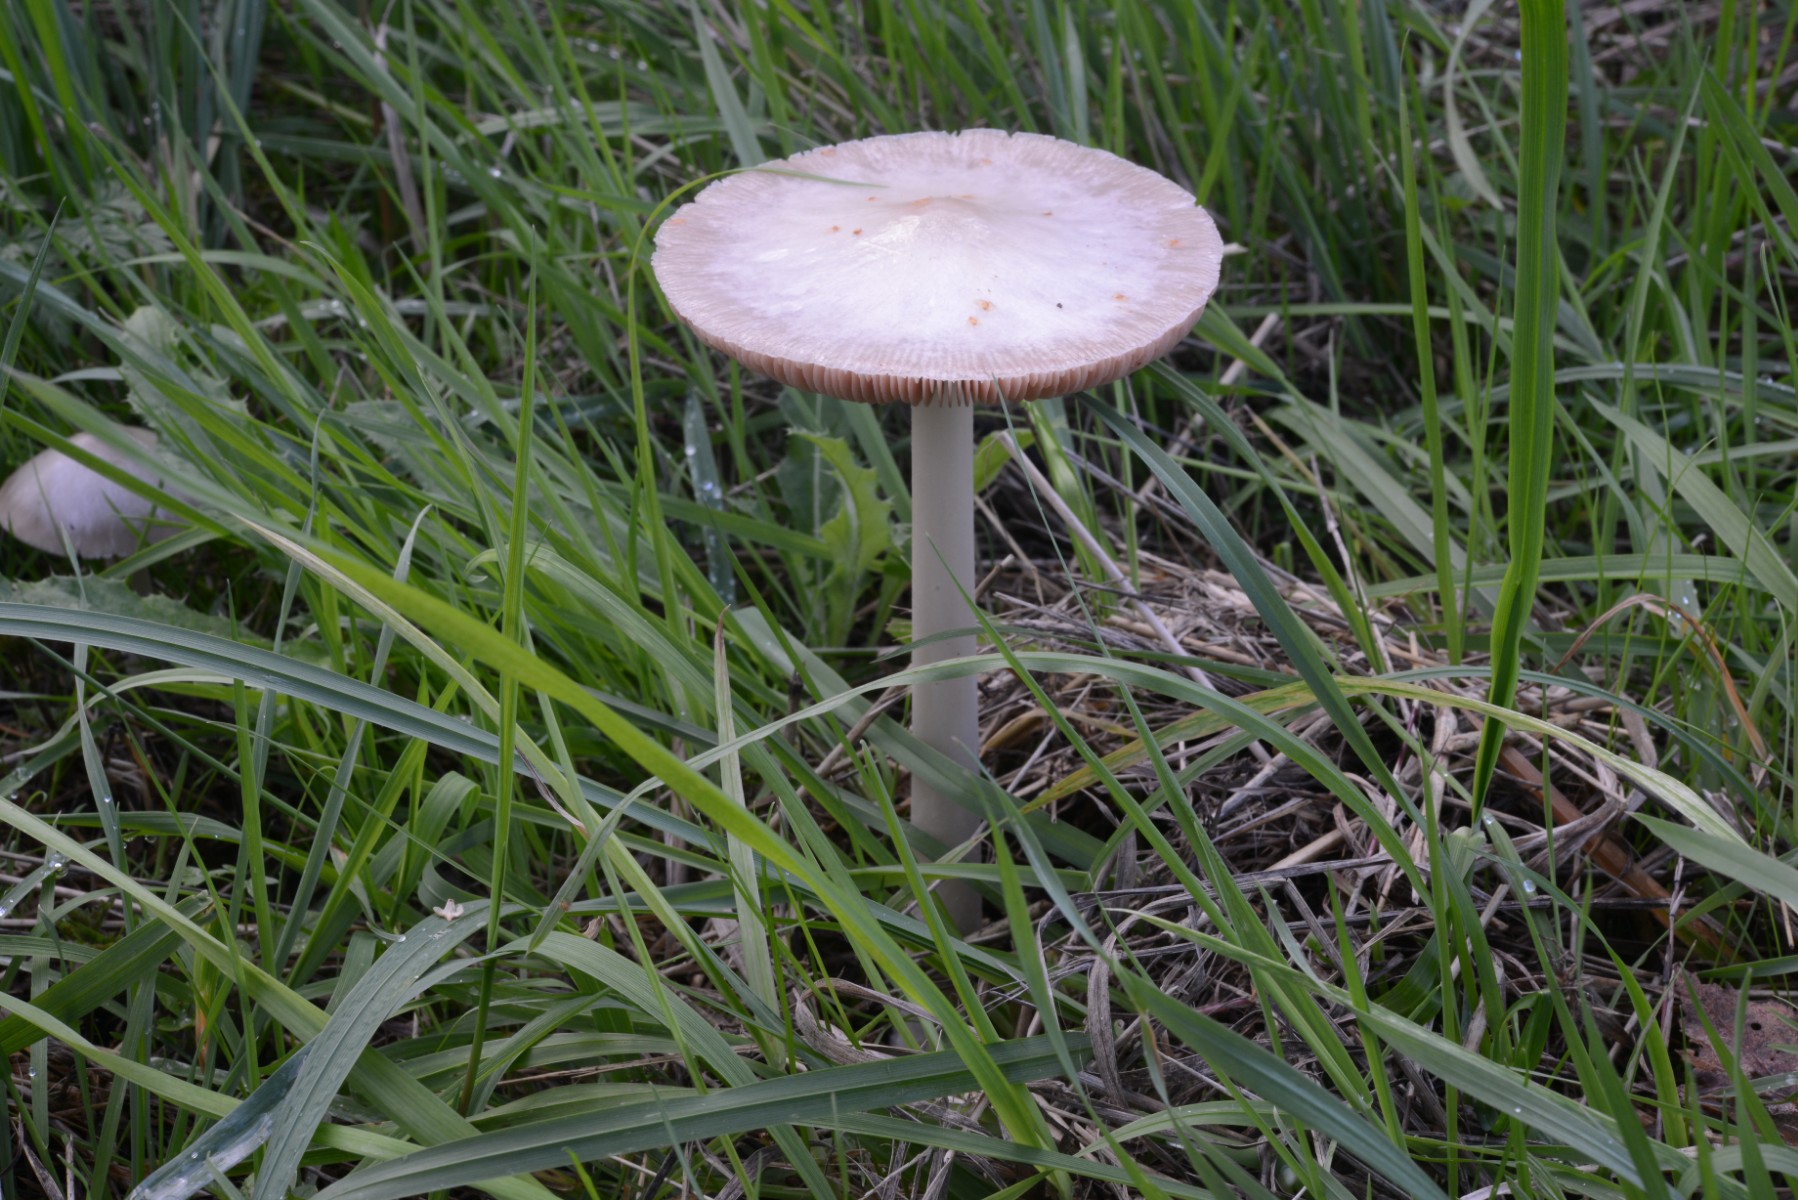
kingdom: Fungi
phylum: Basidiomycota
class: Agaricomycetes
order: Agaricales
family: Pluteaceae
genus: Volvopluteus
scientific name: Volvopluteus gloiocephalus
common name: høj posesvamp
